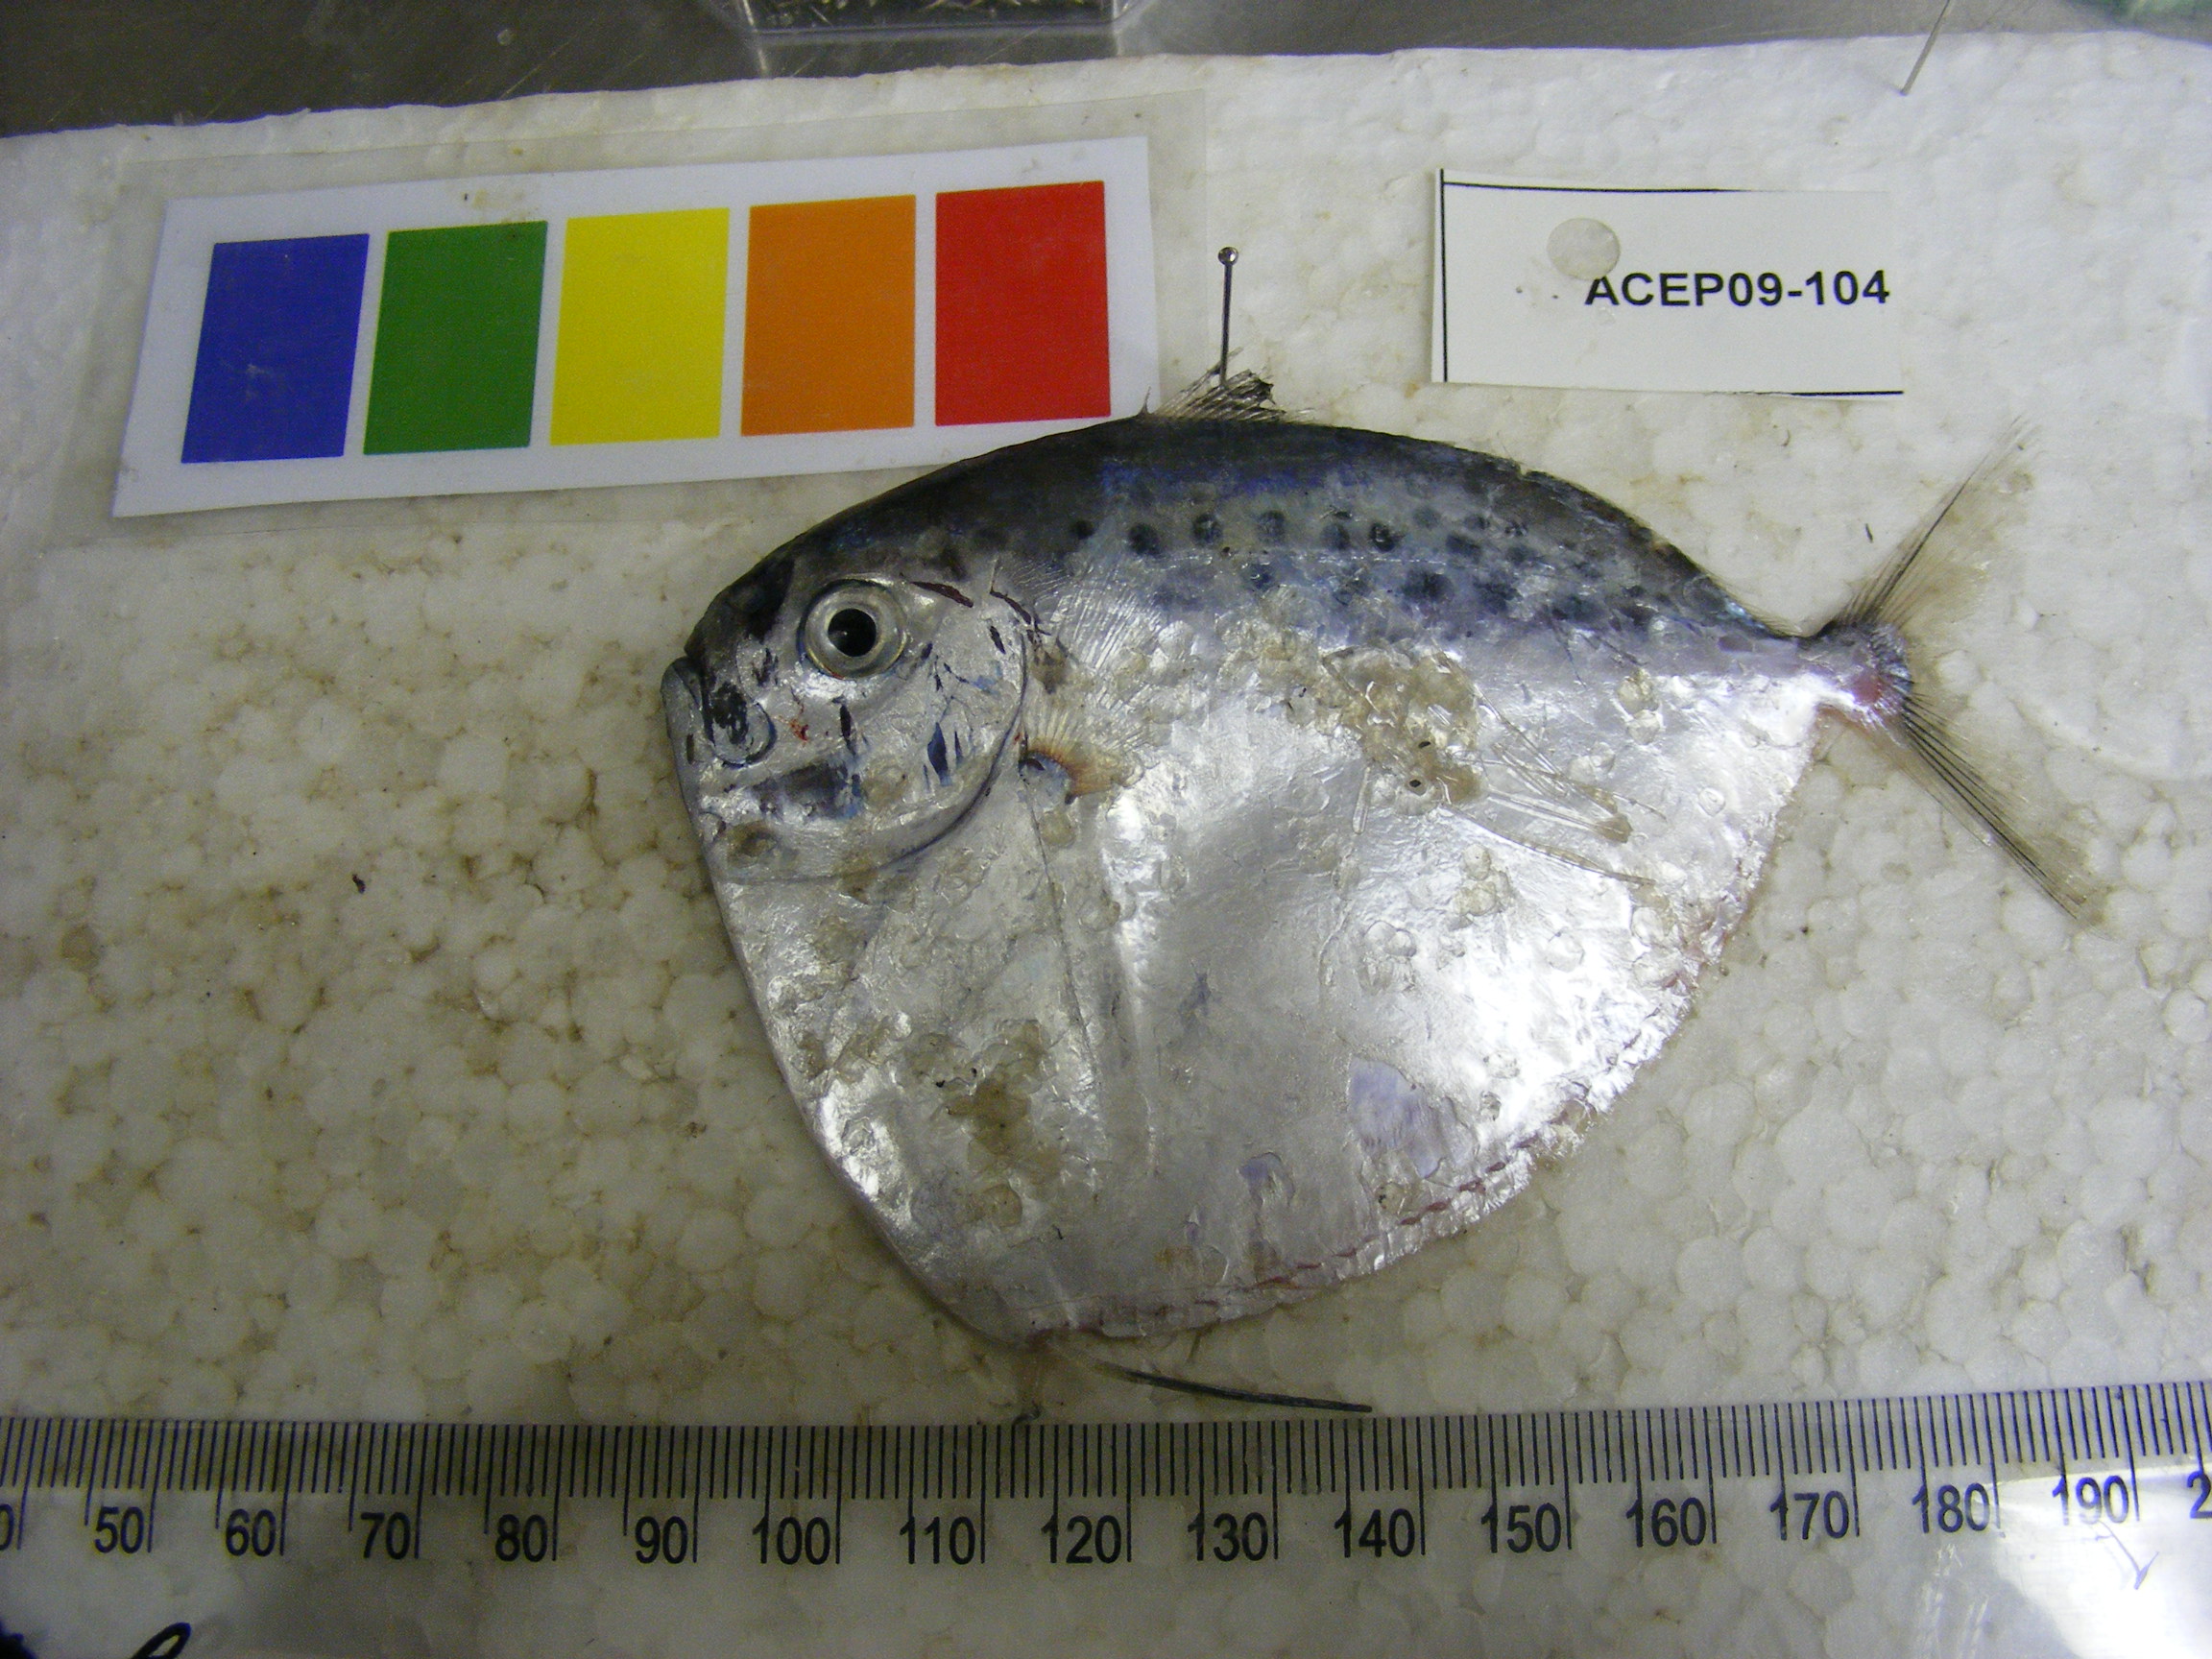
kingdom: Animalia
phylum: Chordata
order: Perciformes
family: Menidae
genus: Mene
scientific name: Mene maculata
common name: Moonfish
